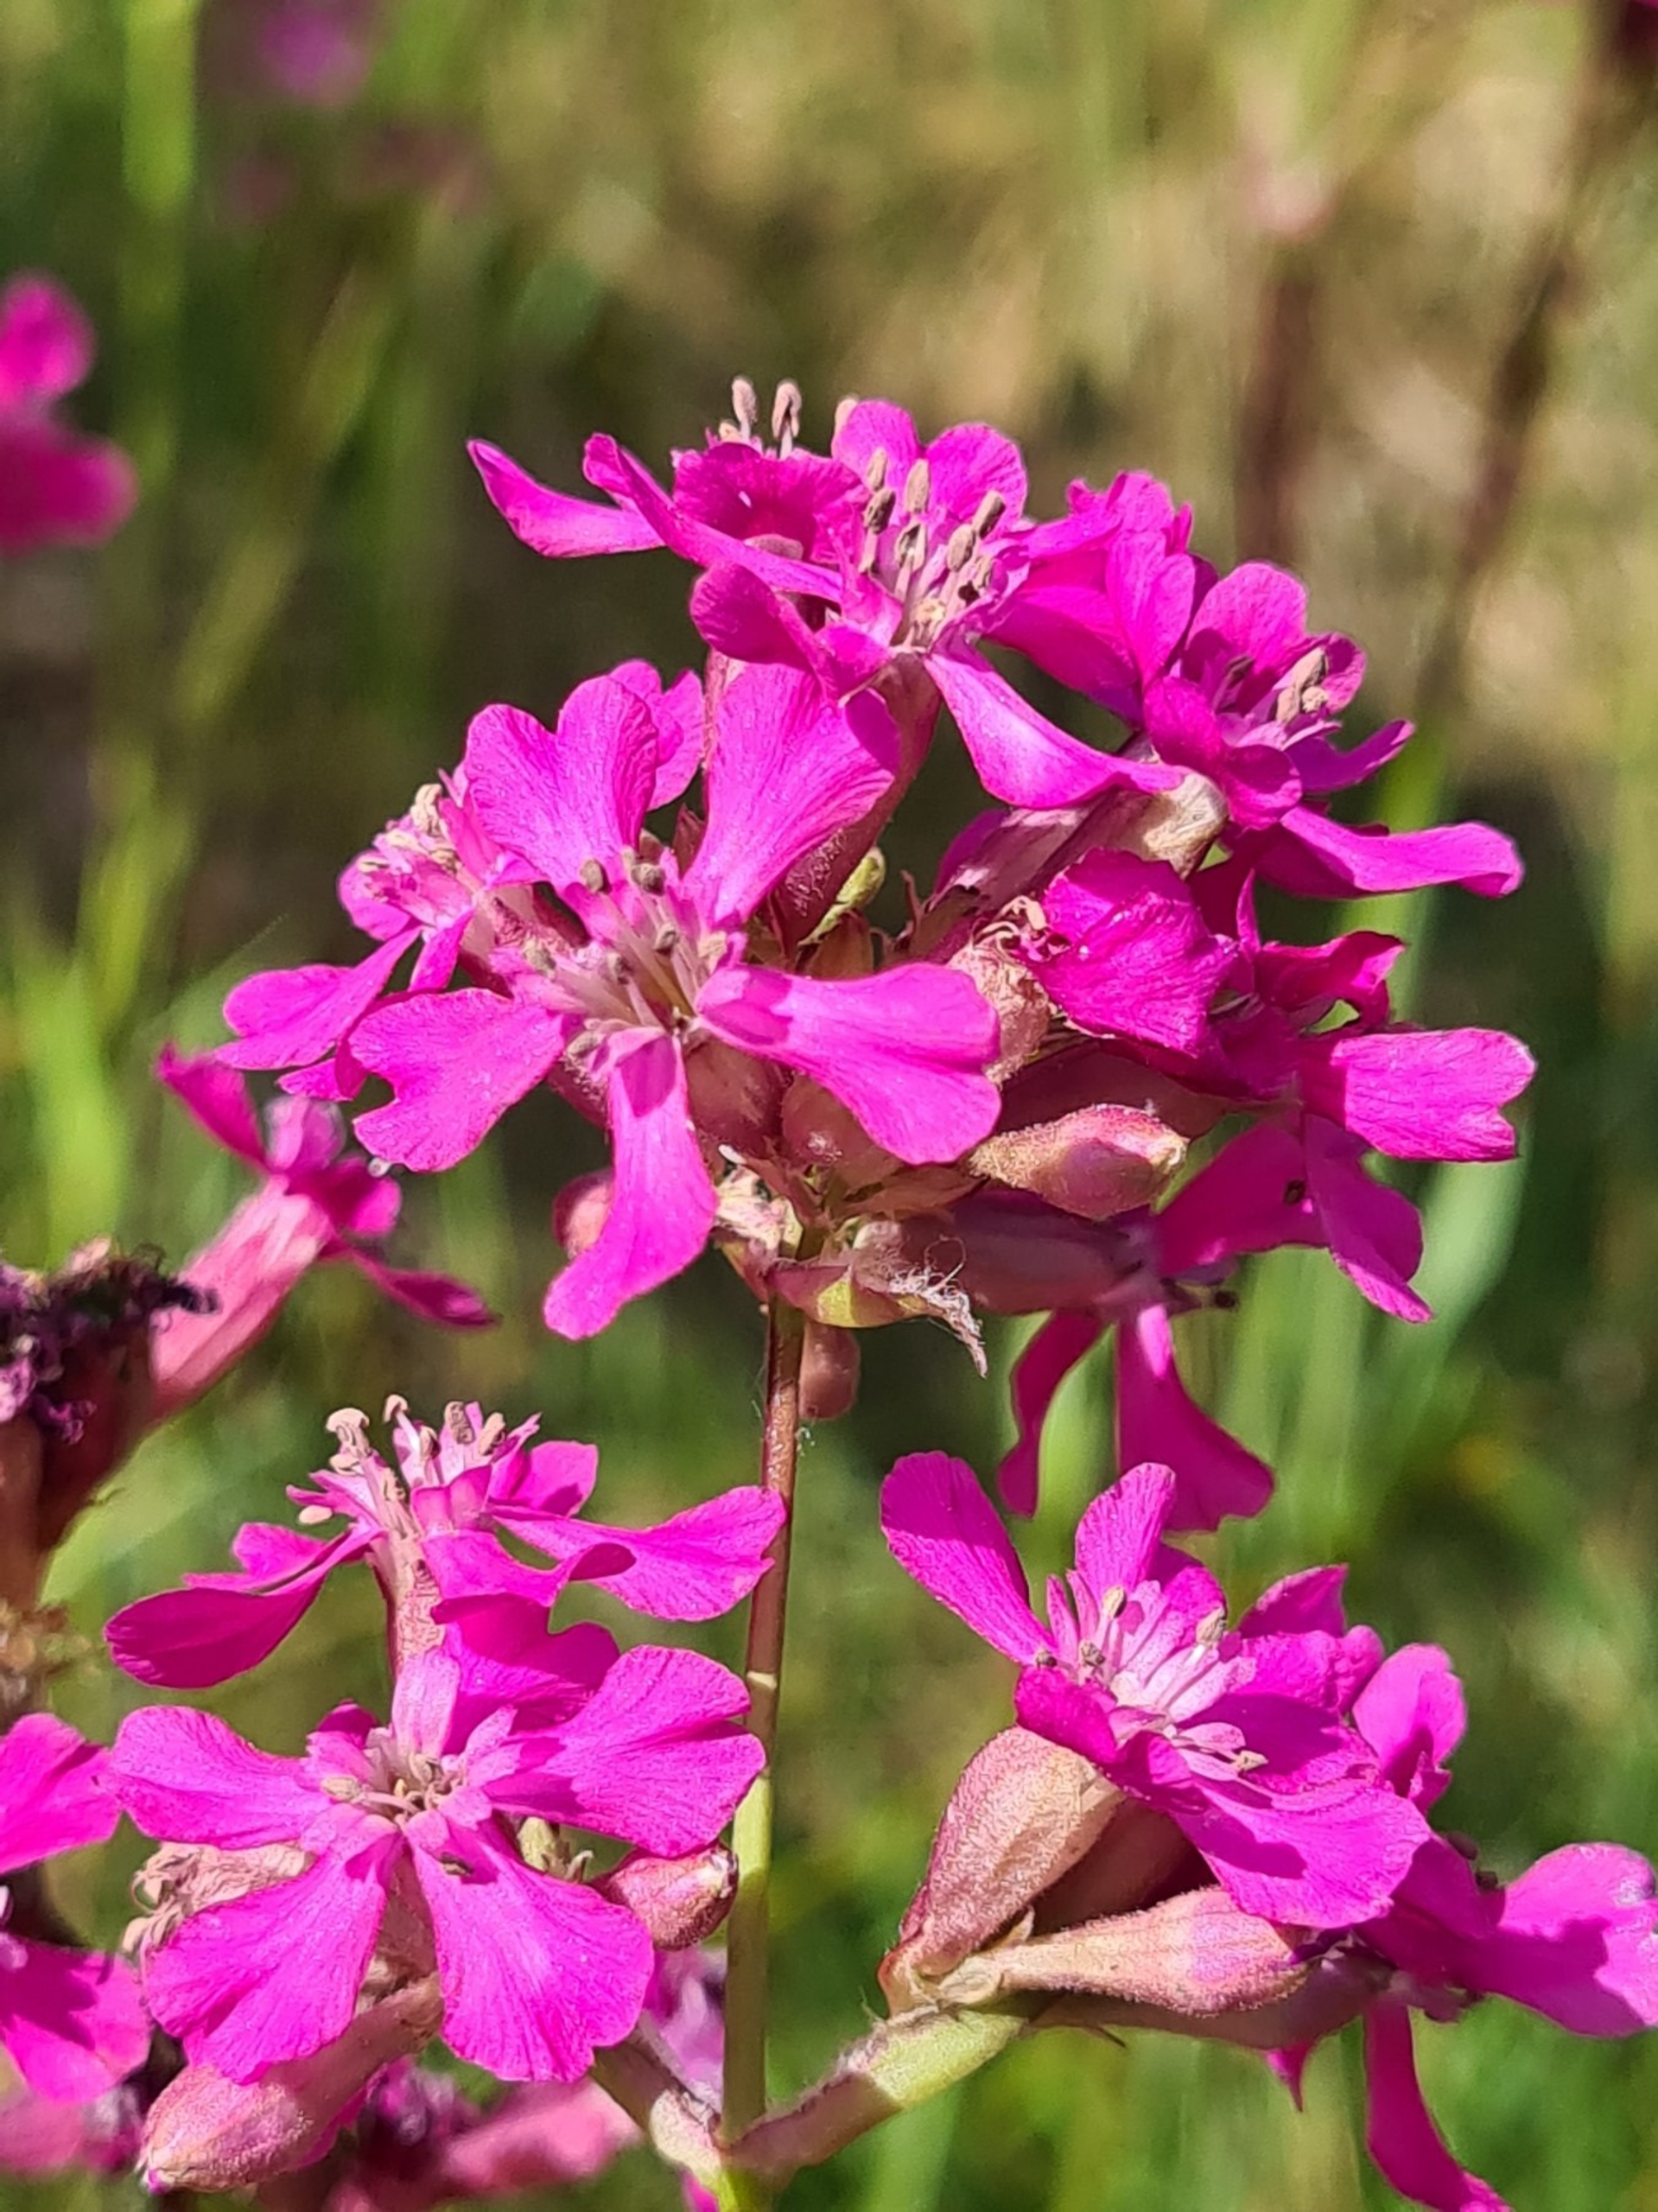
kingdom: Plantae
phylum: Tracheophyta
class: Magnoliopsida
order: Caryophyllales
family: Caryophyllaceae
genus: Viscaria
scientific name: Viscaria vulgaris
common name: Tjærenellike
